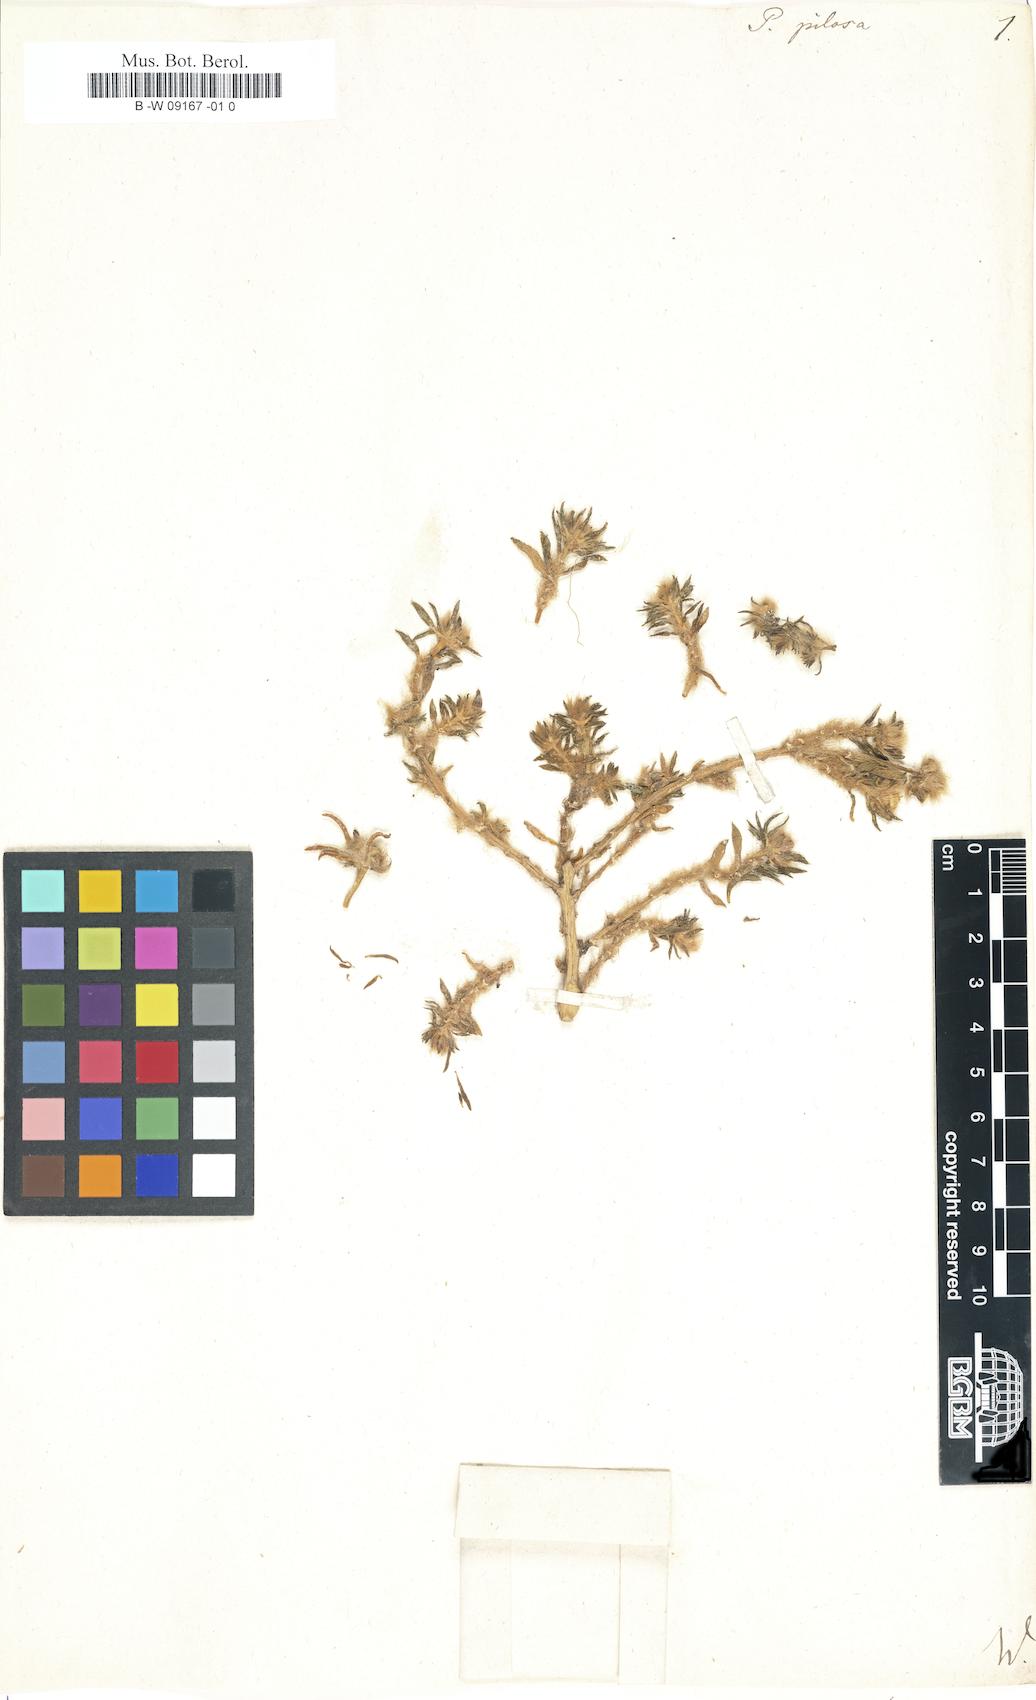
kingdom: Plantae
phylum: Tracheophyta
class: Magnoliopsida
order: Caryophyllales
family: Portulacaceae
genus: Portulaca
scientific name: Portulaca pilosa
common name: Kiss me quick
